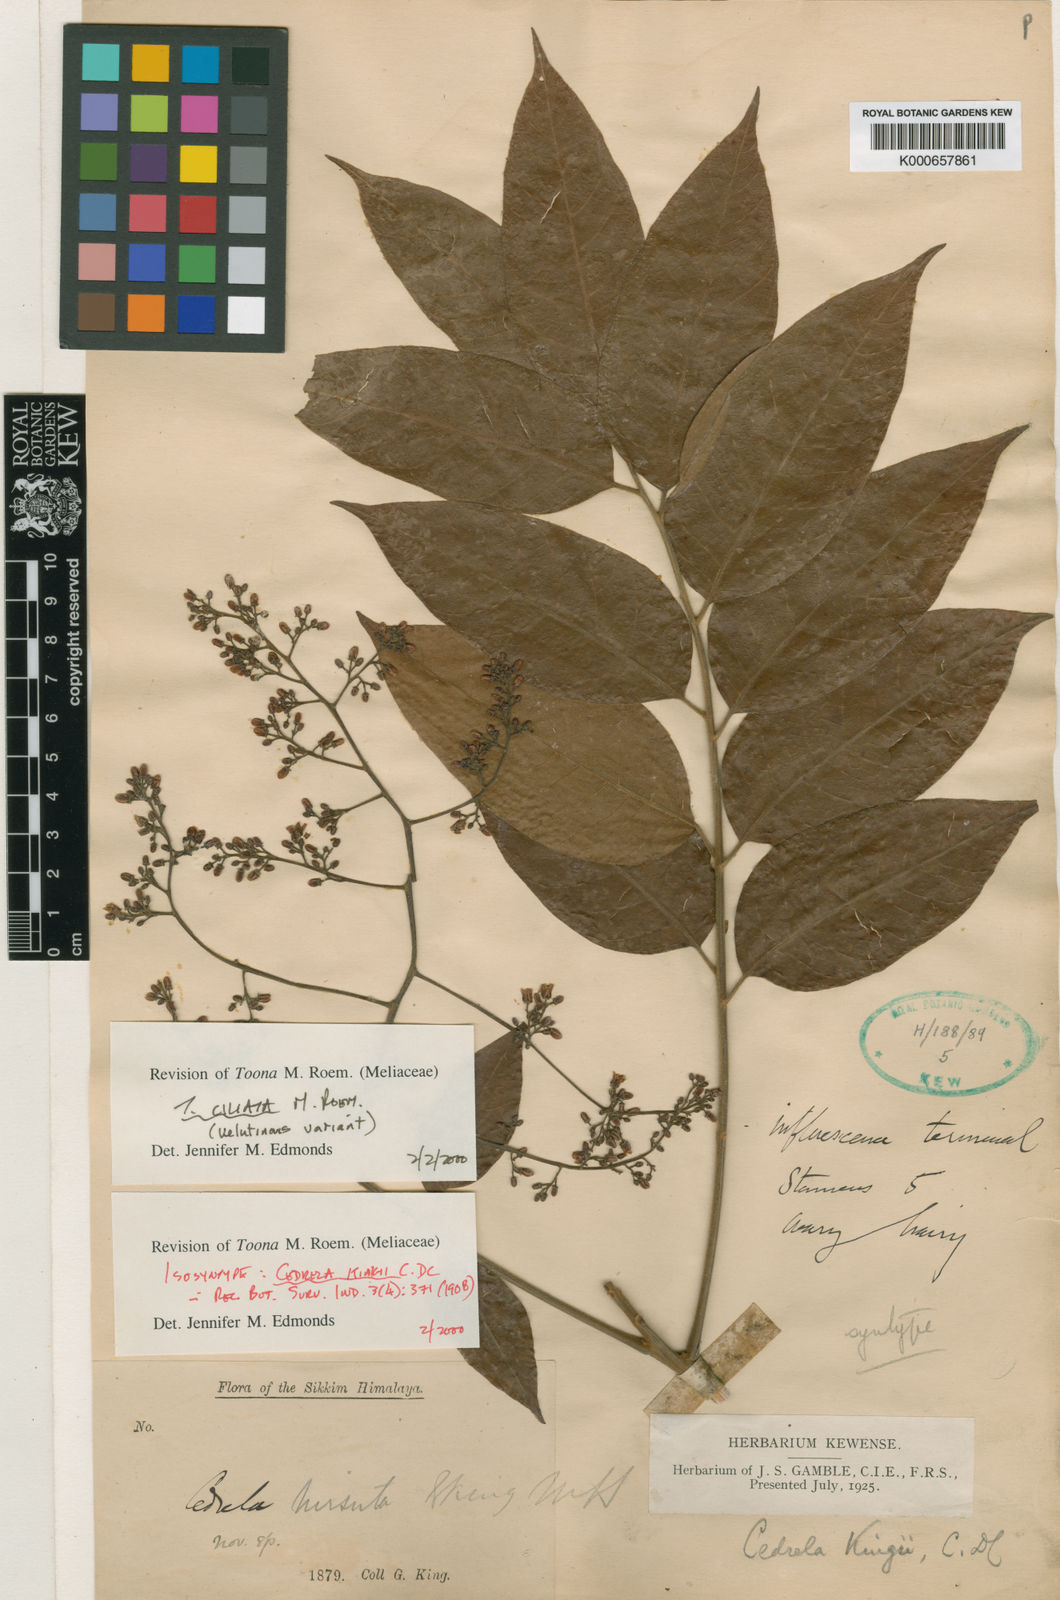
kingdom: Plantae
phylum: Tracheophyta
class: Magnoliopsida
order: Sapindales
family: Meliaceae
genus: Toona
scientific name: Toona ciliata
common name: Australian redcedar
